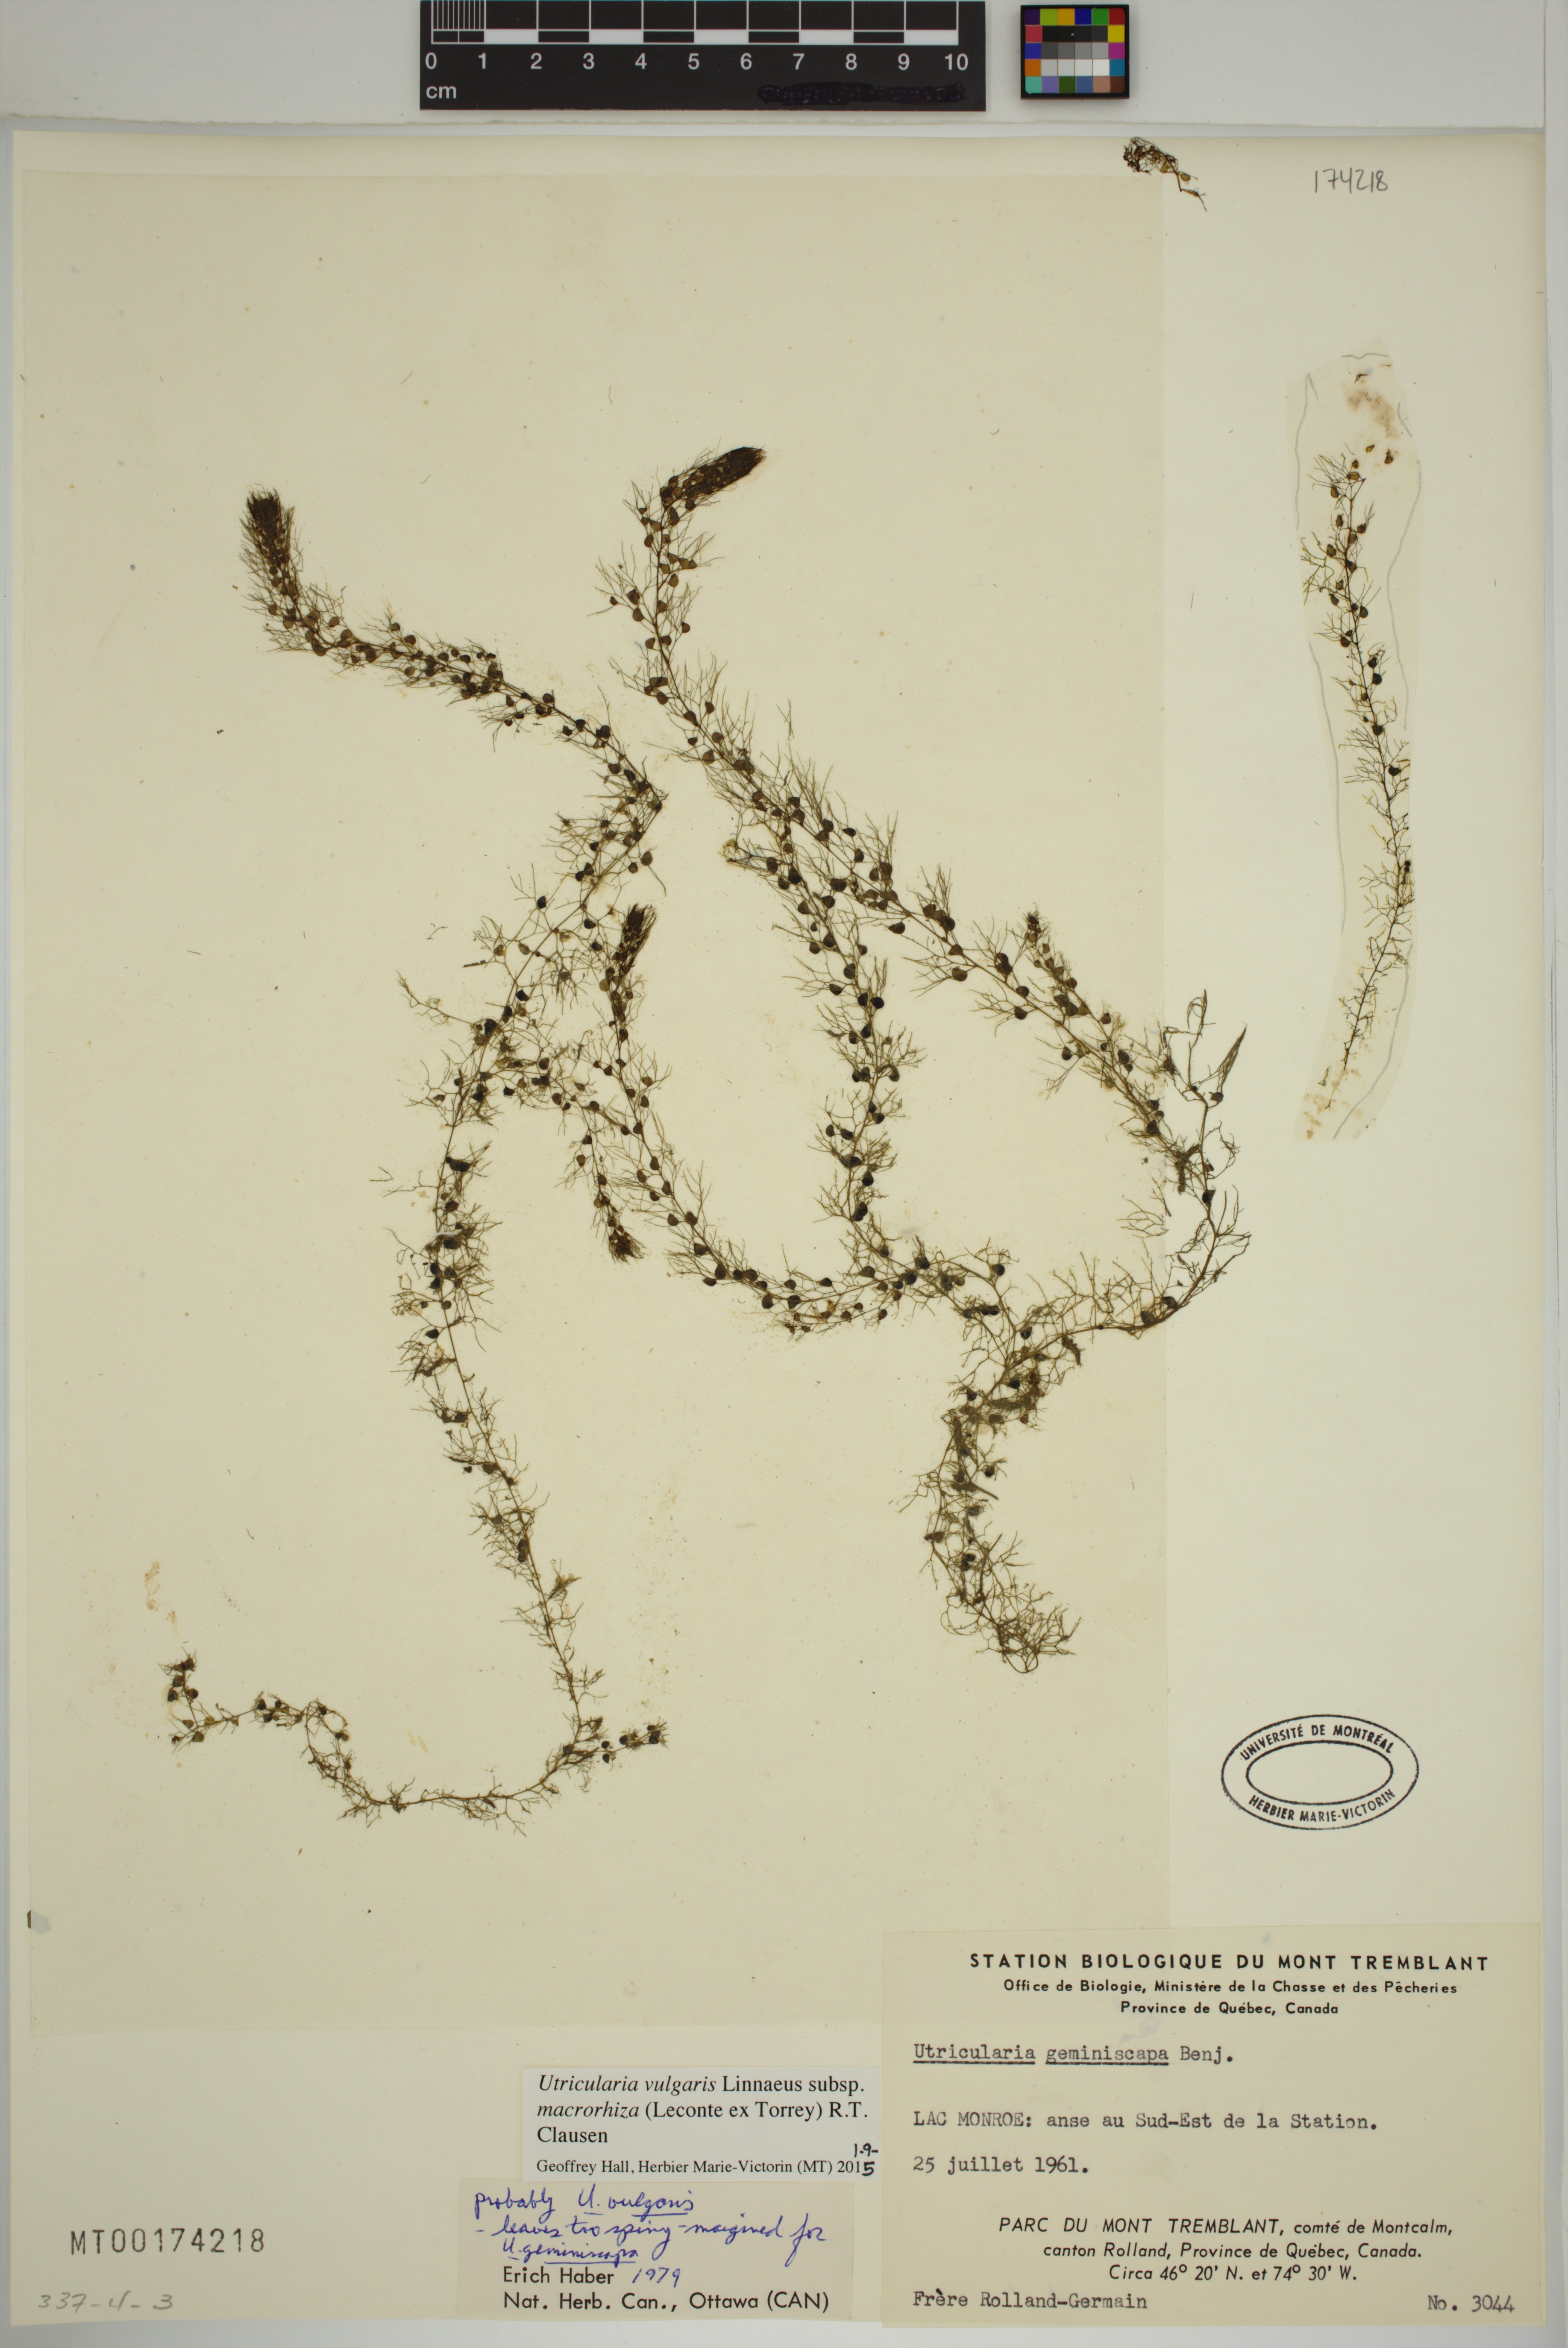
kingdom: Plantae
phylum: Tracheophyta
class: Magnoliopsida
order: Lamiales
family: Lentibulariaceae
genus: Utricularia
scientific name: Utricularia macrorhiza
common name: Common bladderwort
